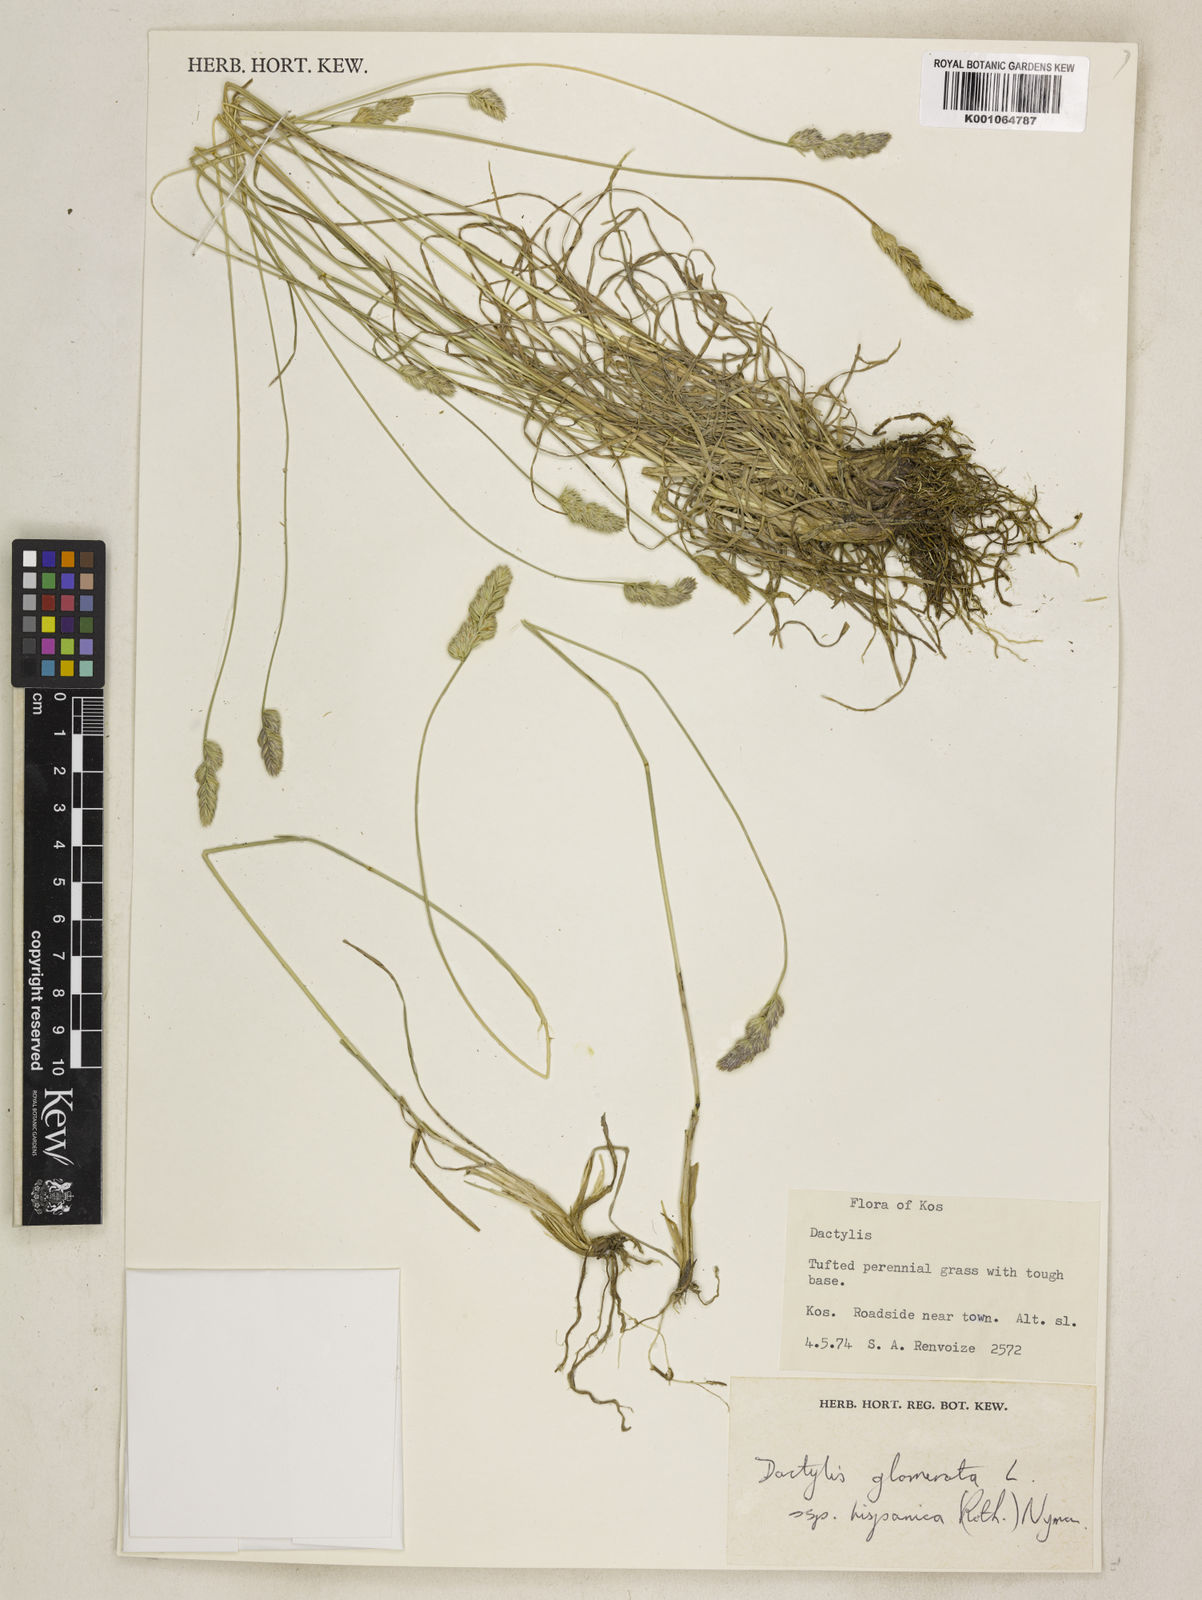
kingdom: Plantae
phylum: Tracheophyta
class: Liliopsida
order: Poales
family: Poaceae
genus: Dactylis
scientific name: Dactylis glomerata
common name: Orchardgrass
